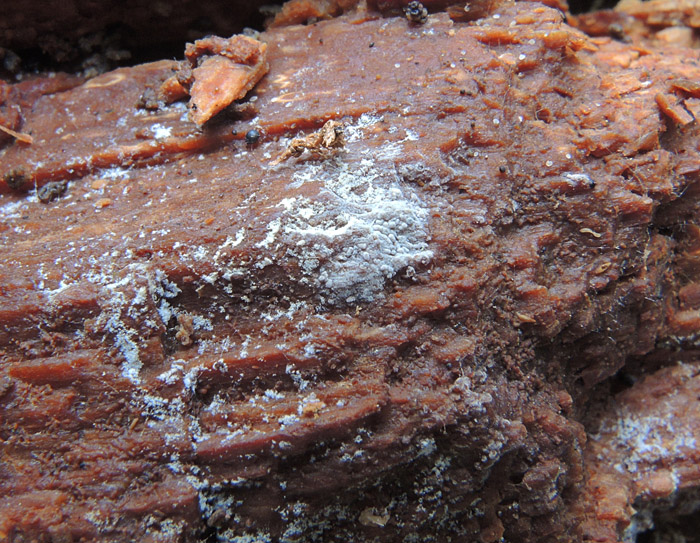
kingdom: Fungi
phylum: Basidiomycota
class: Agaricomycetes
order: Hymenochaetales
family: Hyphodontiaceae
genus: Hyphodontia
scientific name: Hyphodontia alutaria
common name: flaskerenser-nålehinde
